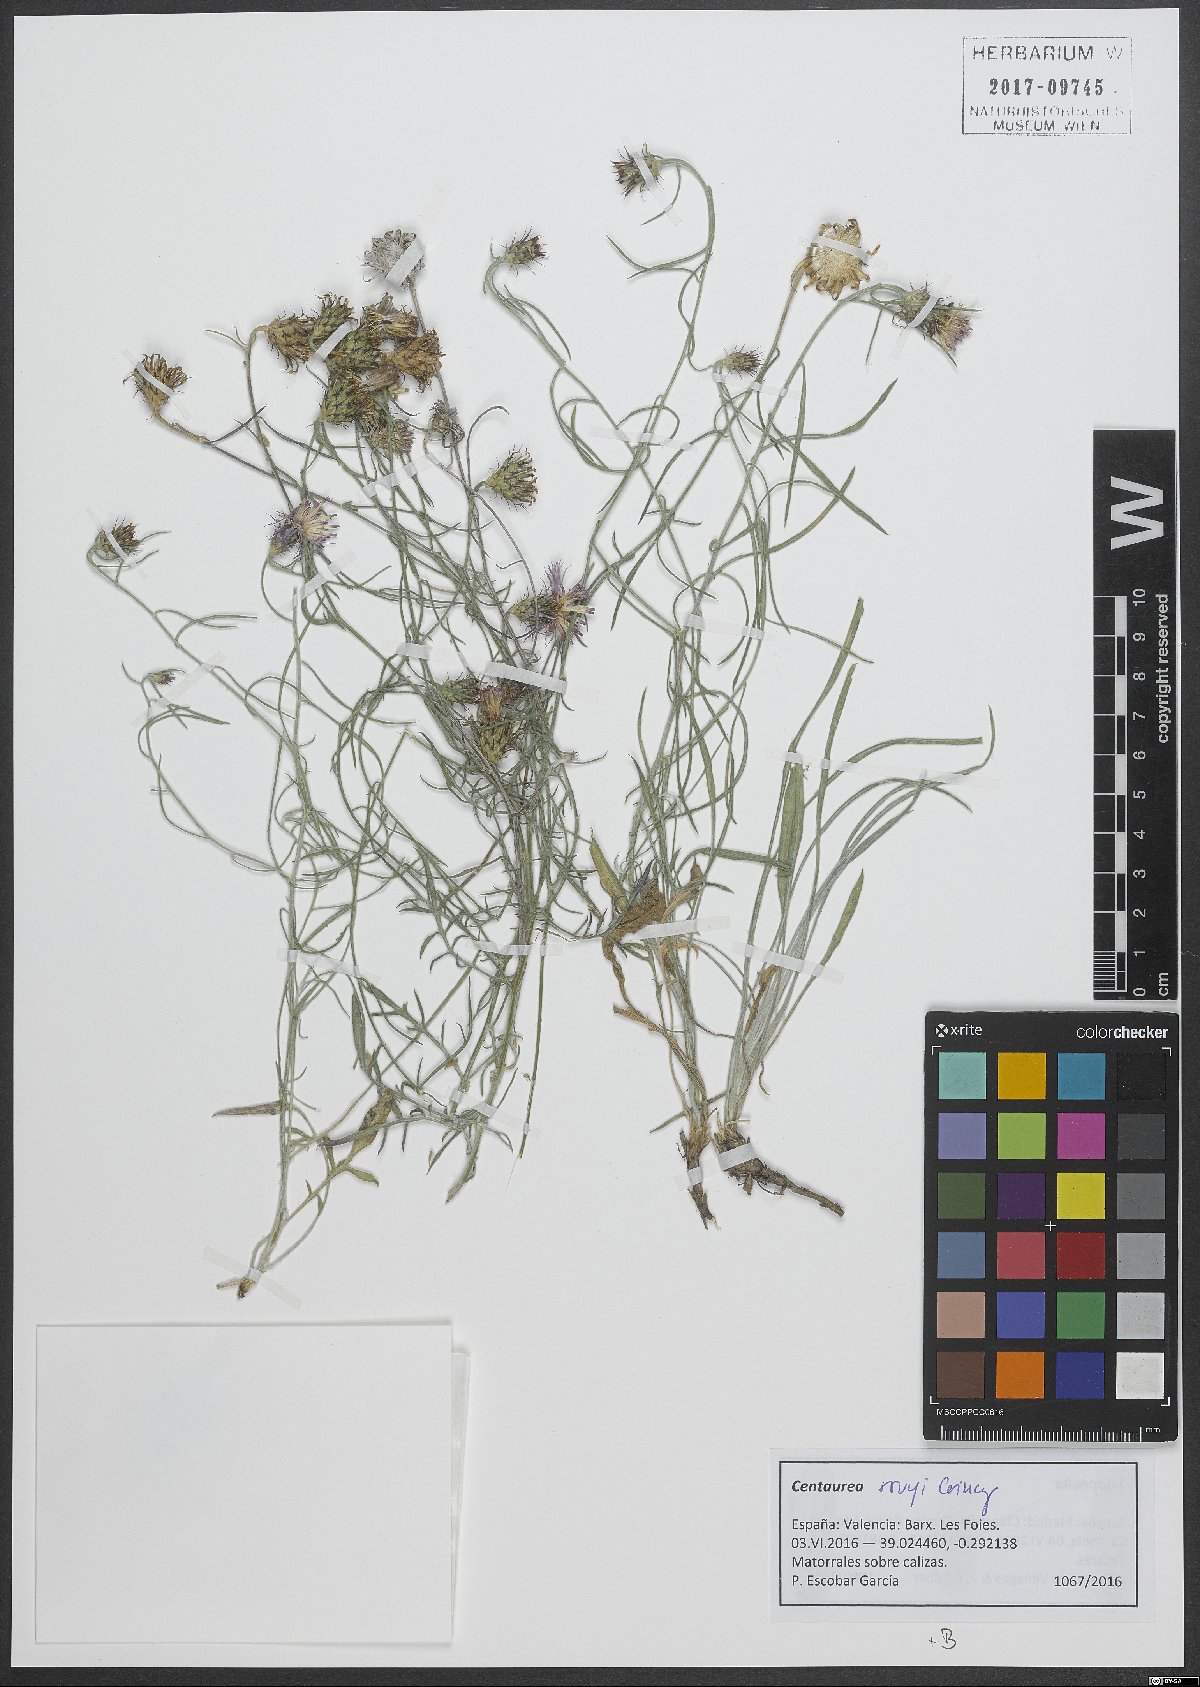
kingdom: Plantae
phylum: Tracheophyta
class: Magnoliopsida
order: Asterales
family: Asteraceae
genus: Centaurea
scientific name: Centaurea rouyi
